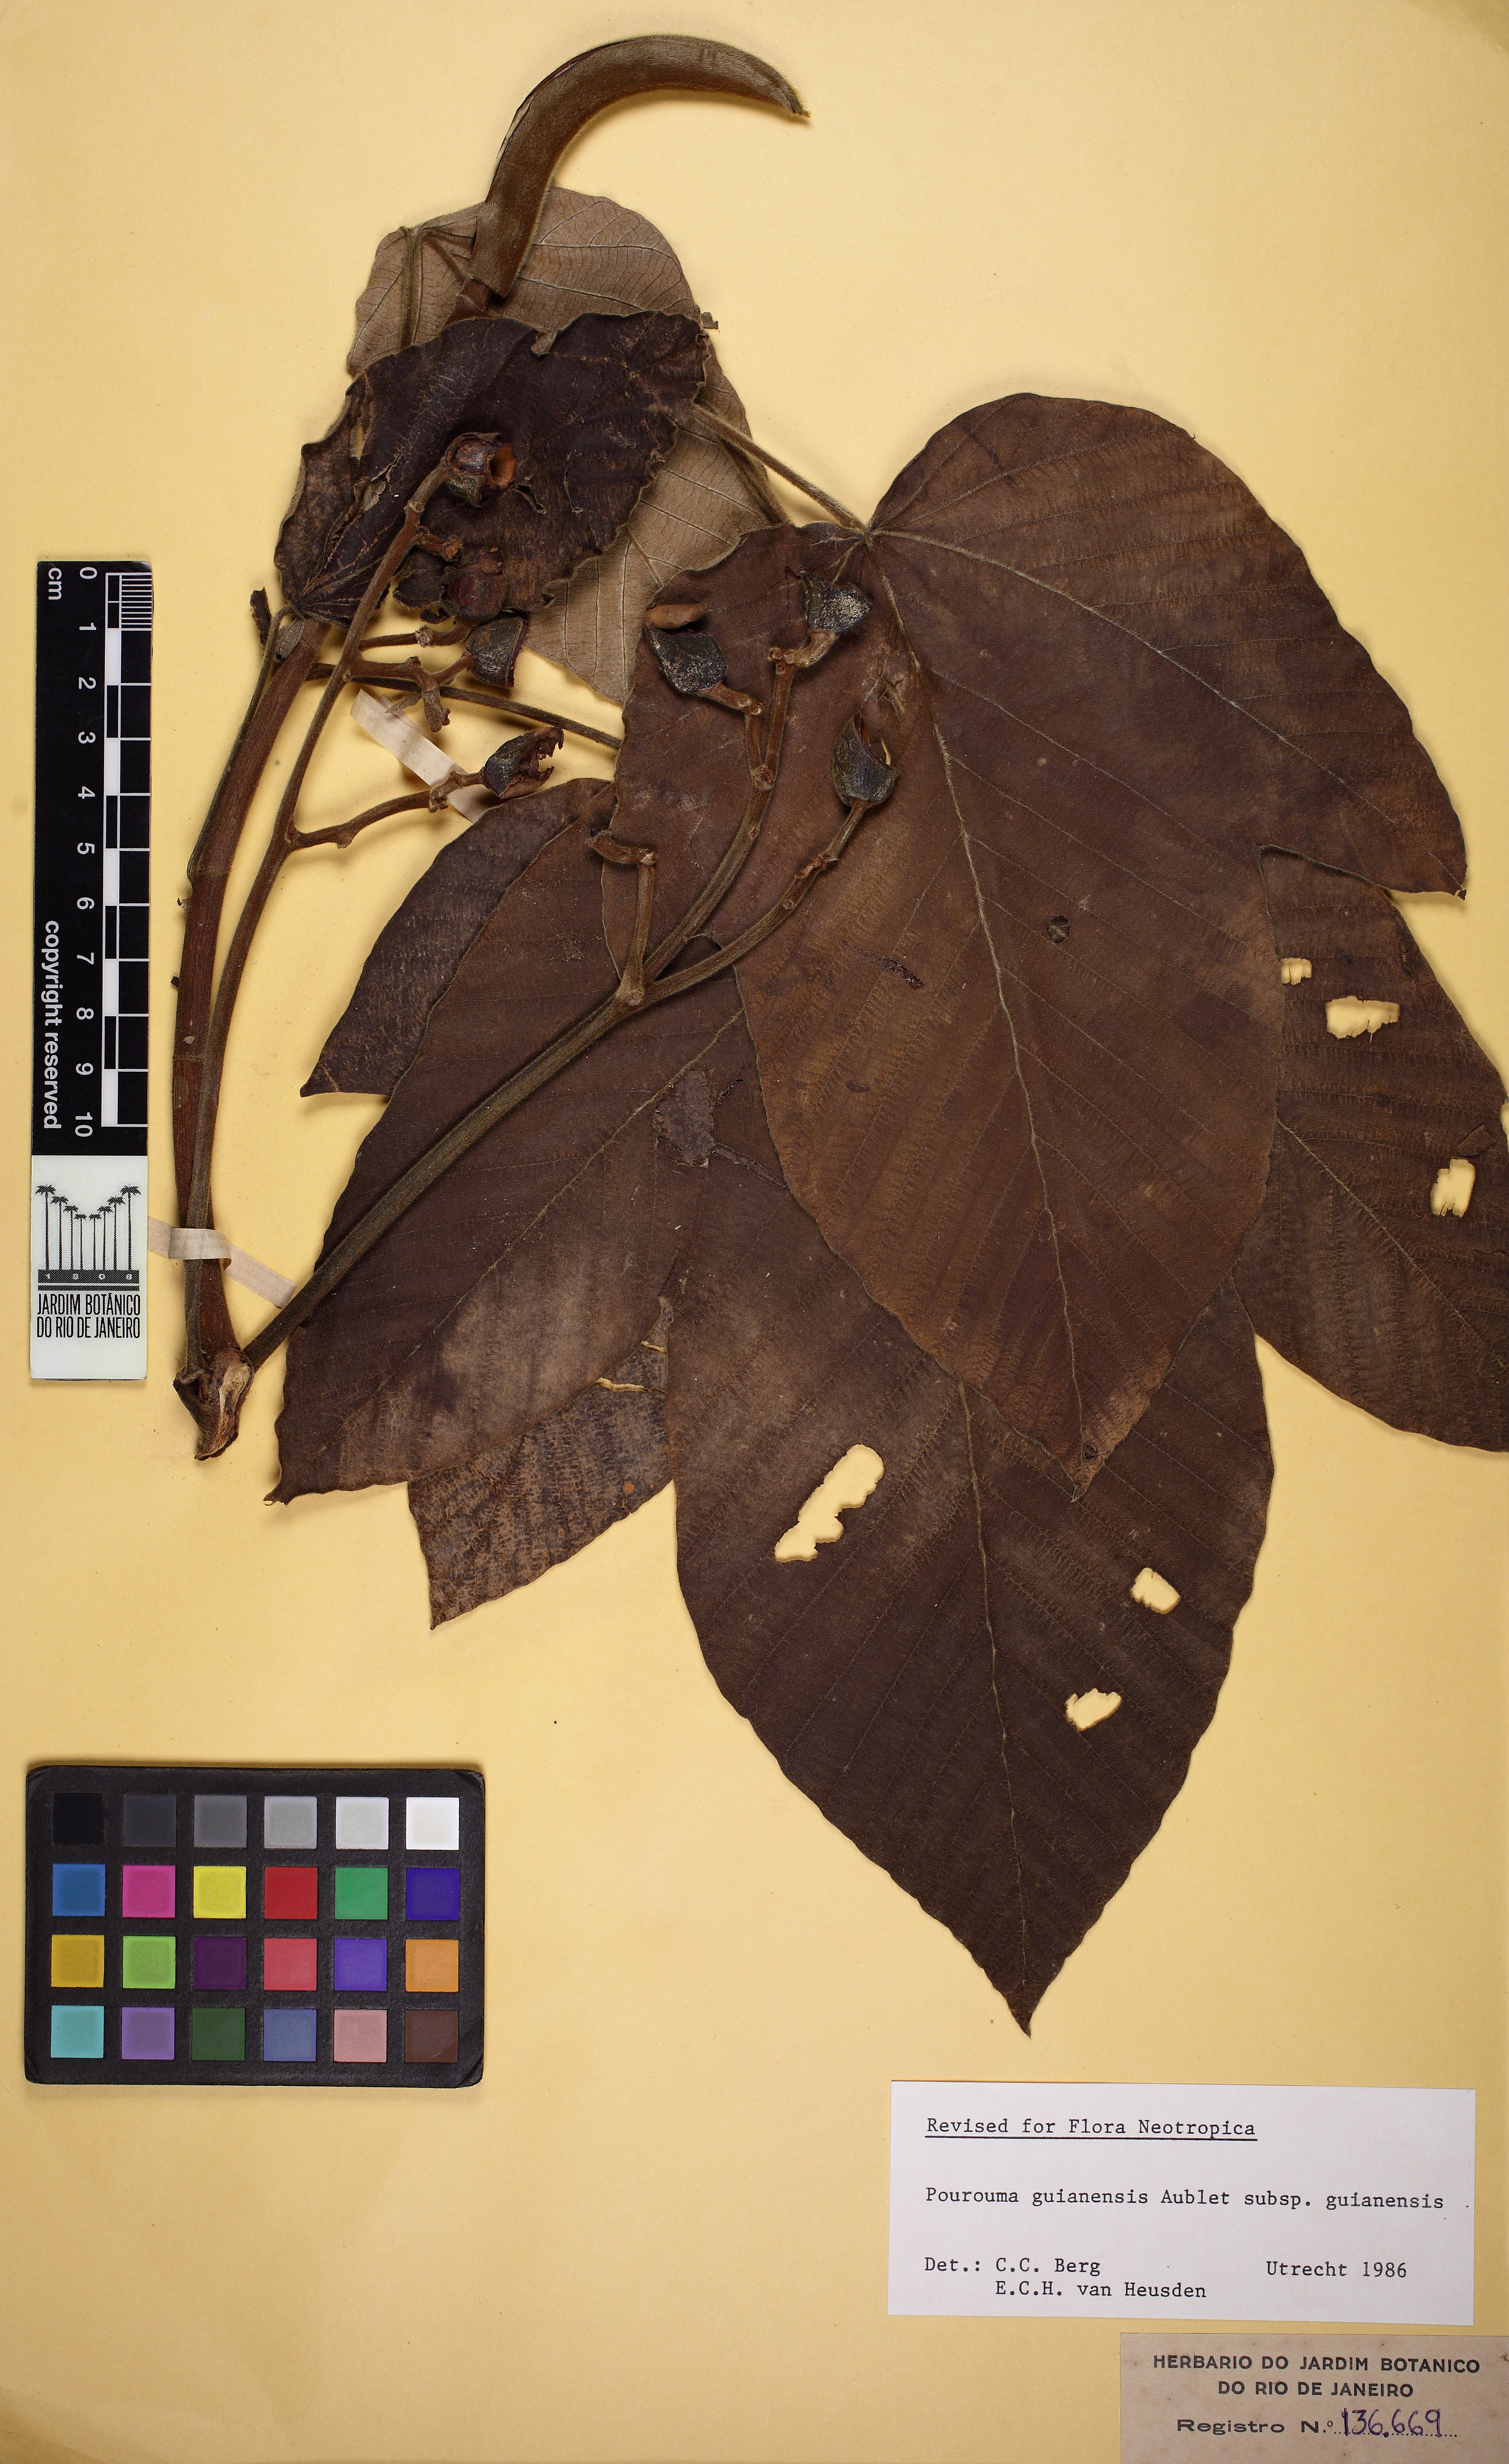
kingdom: Plantae
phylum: Tracheophyta
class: Magnoliopsida
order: Rosales
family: Urticaceae
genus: Pourouma
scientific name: Pourouma guianensis
